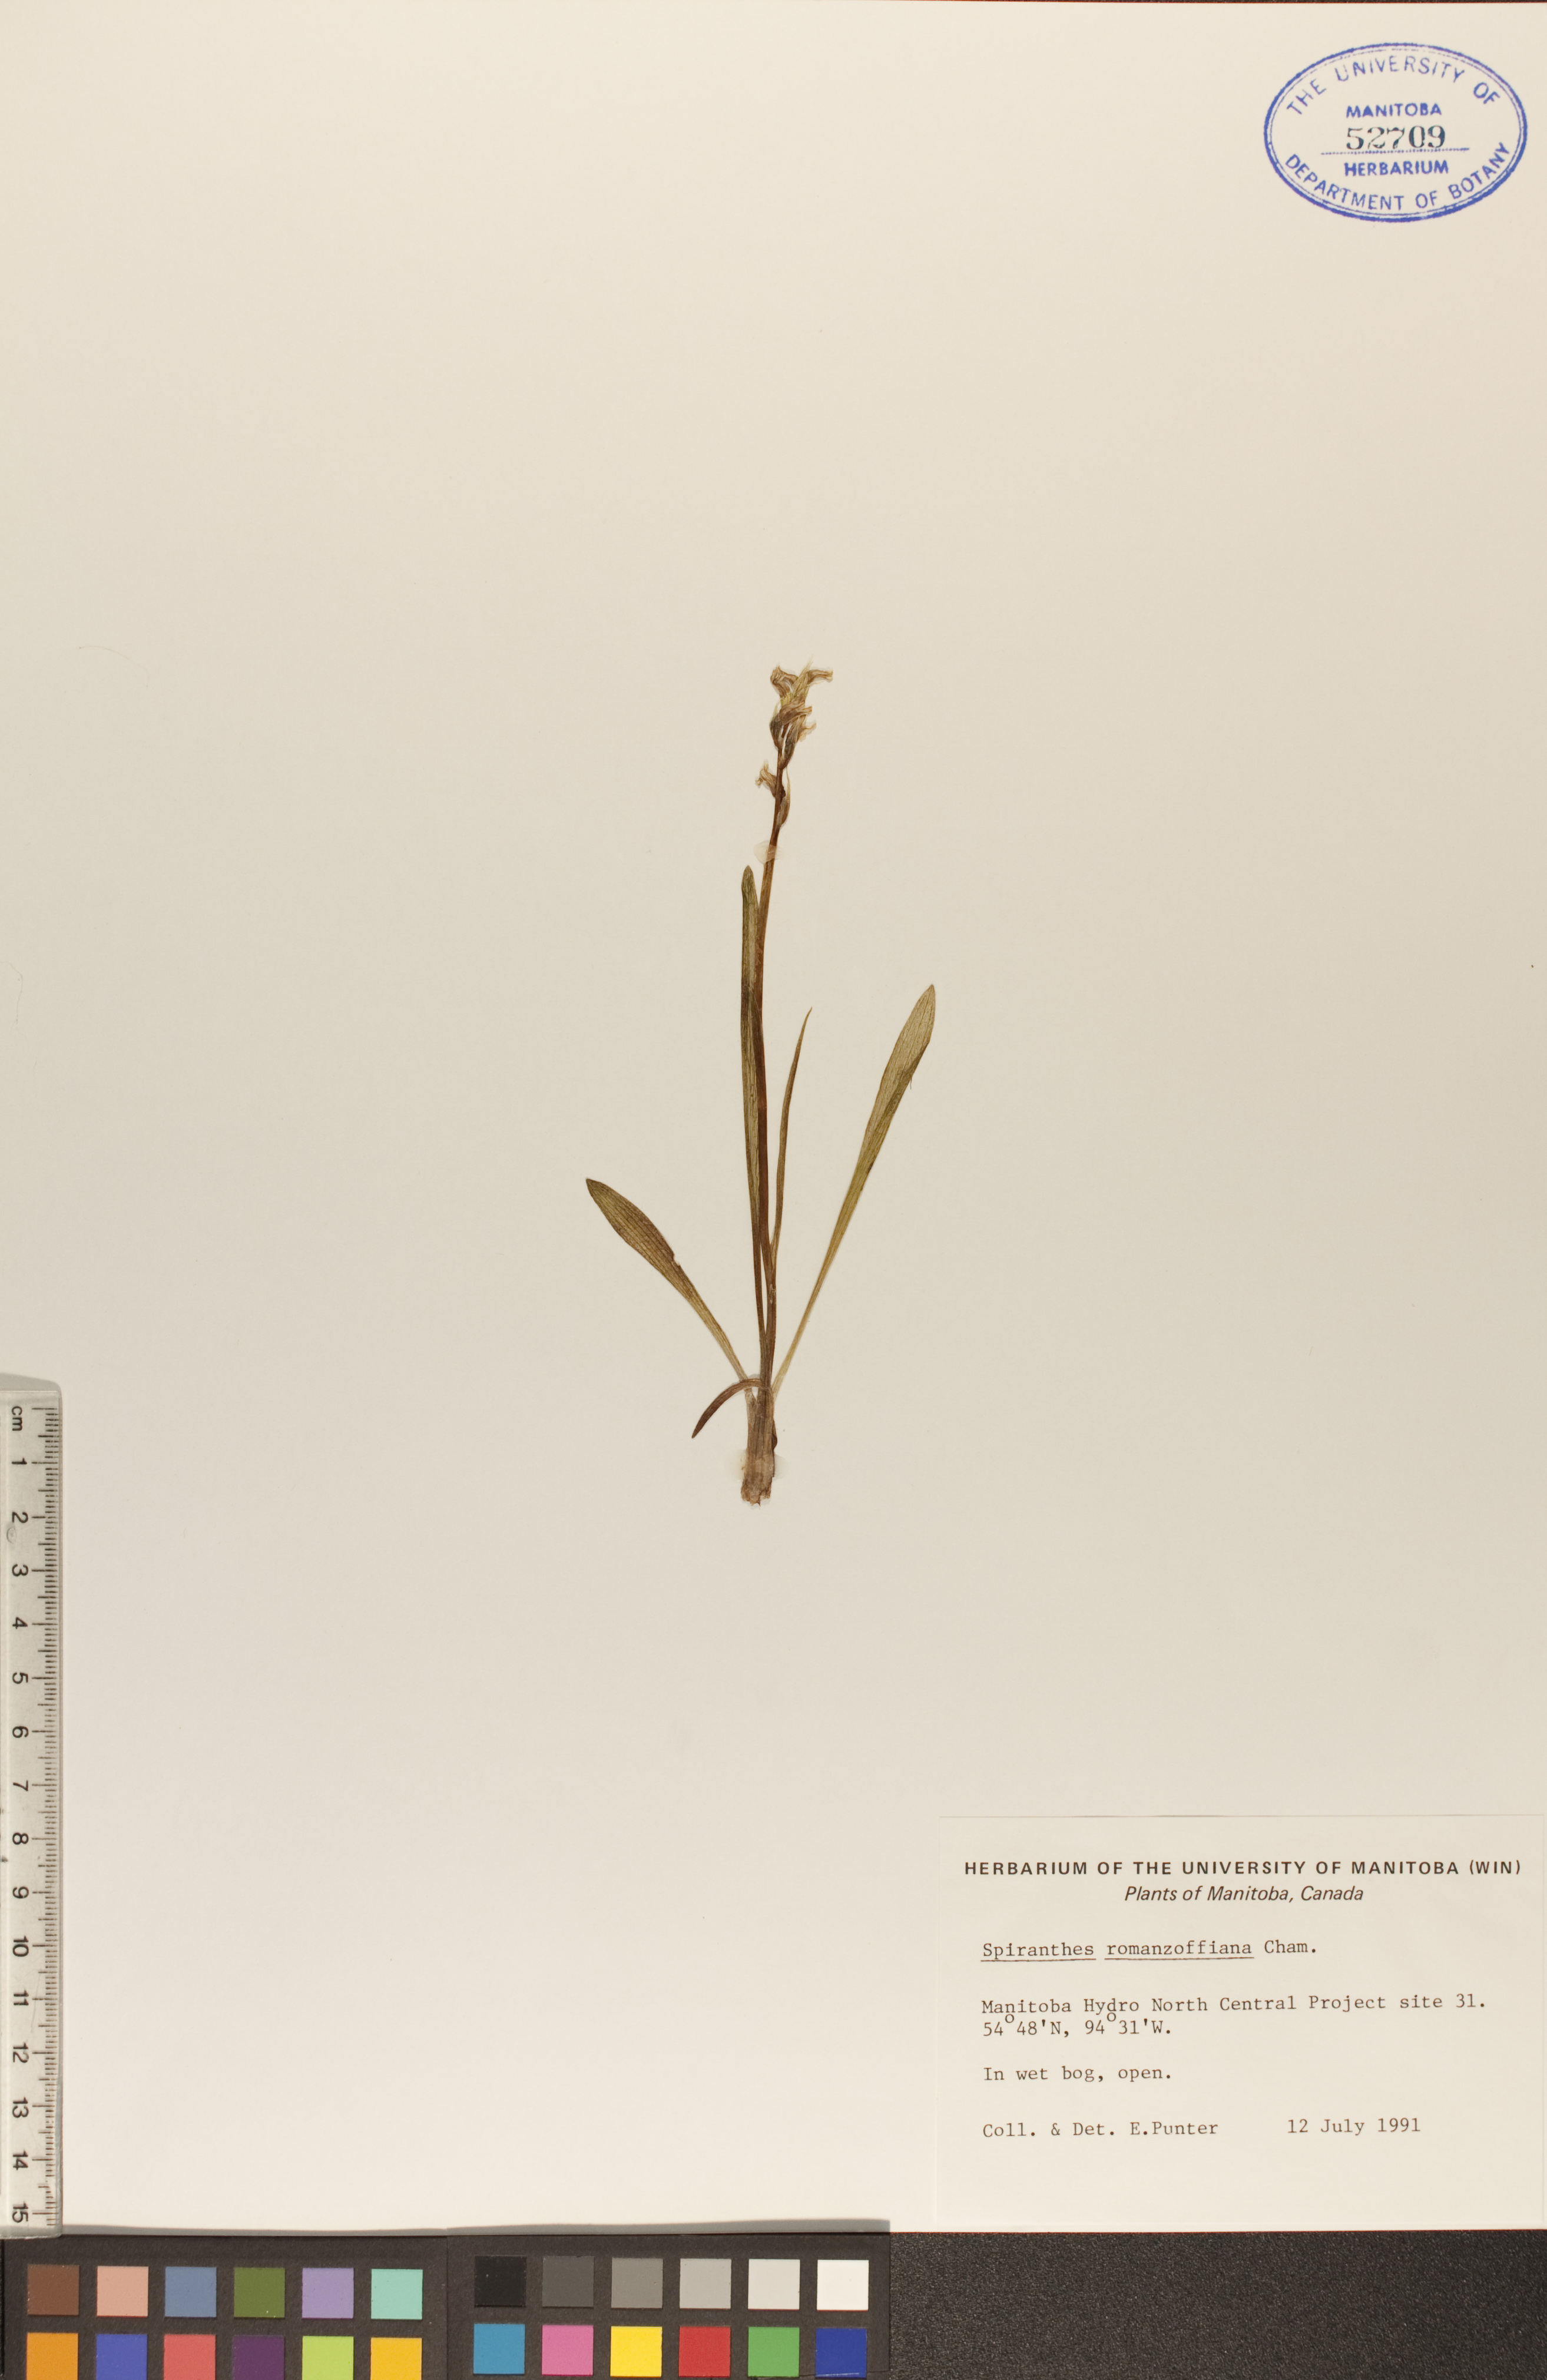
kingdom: Plantae
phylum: Tracheophyta
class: Liliopsida
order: Asparagales
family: Orchidaceae
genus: Spiranthes
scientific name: Spiranthes romanzoffiana
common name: Irish lady's-tresses
